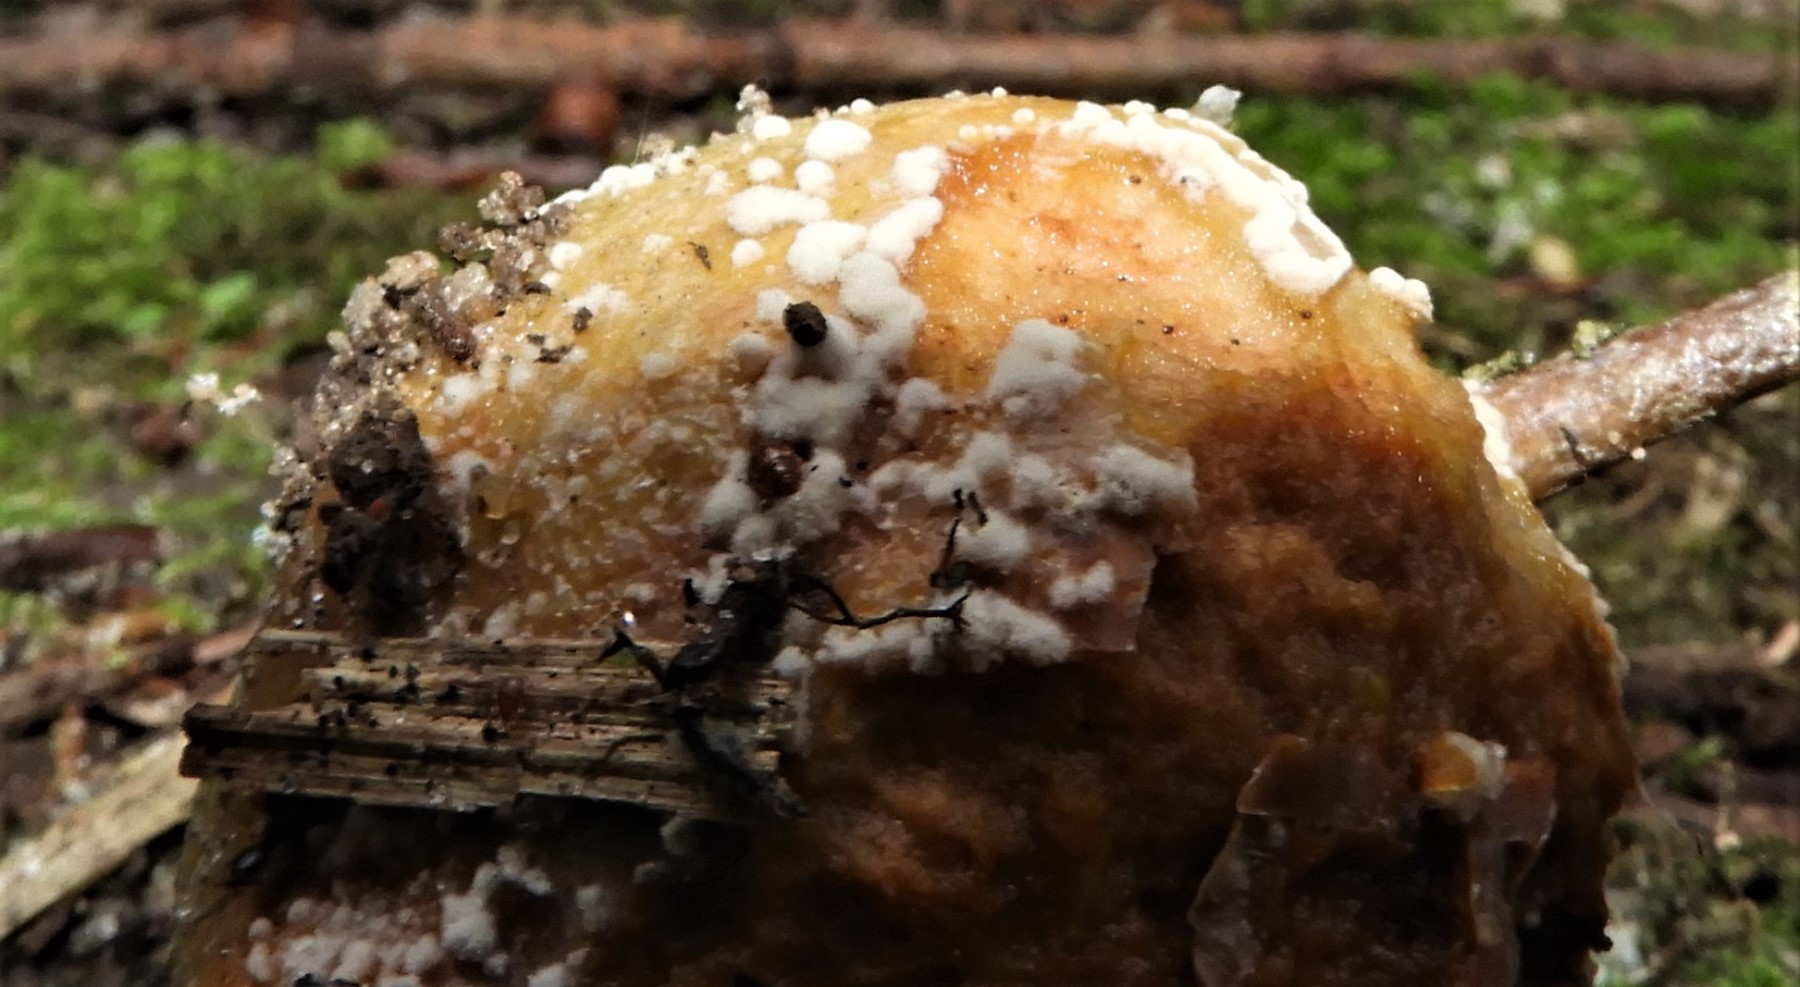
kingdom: Fungi
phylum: Ascomycota
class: Leotiomycetes
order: Helotiales
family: Sclerotiniaceae
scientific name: Sclerotiniaceae
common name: knoldskivefamilien
